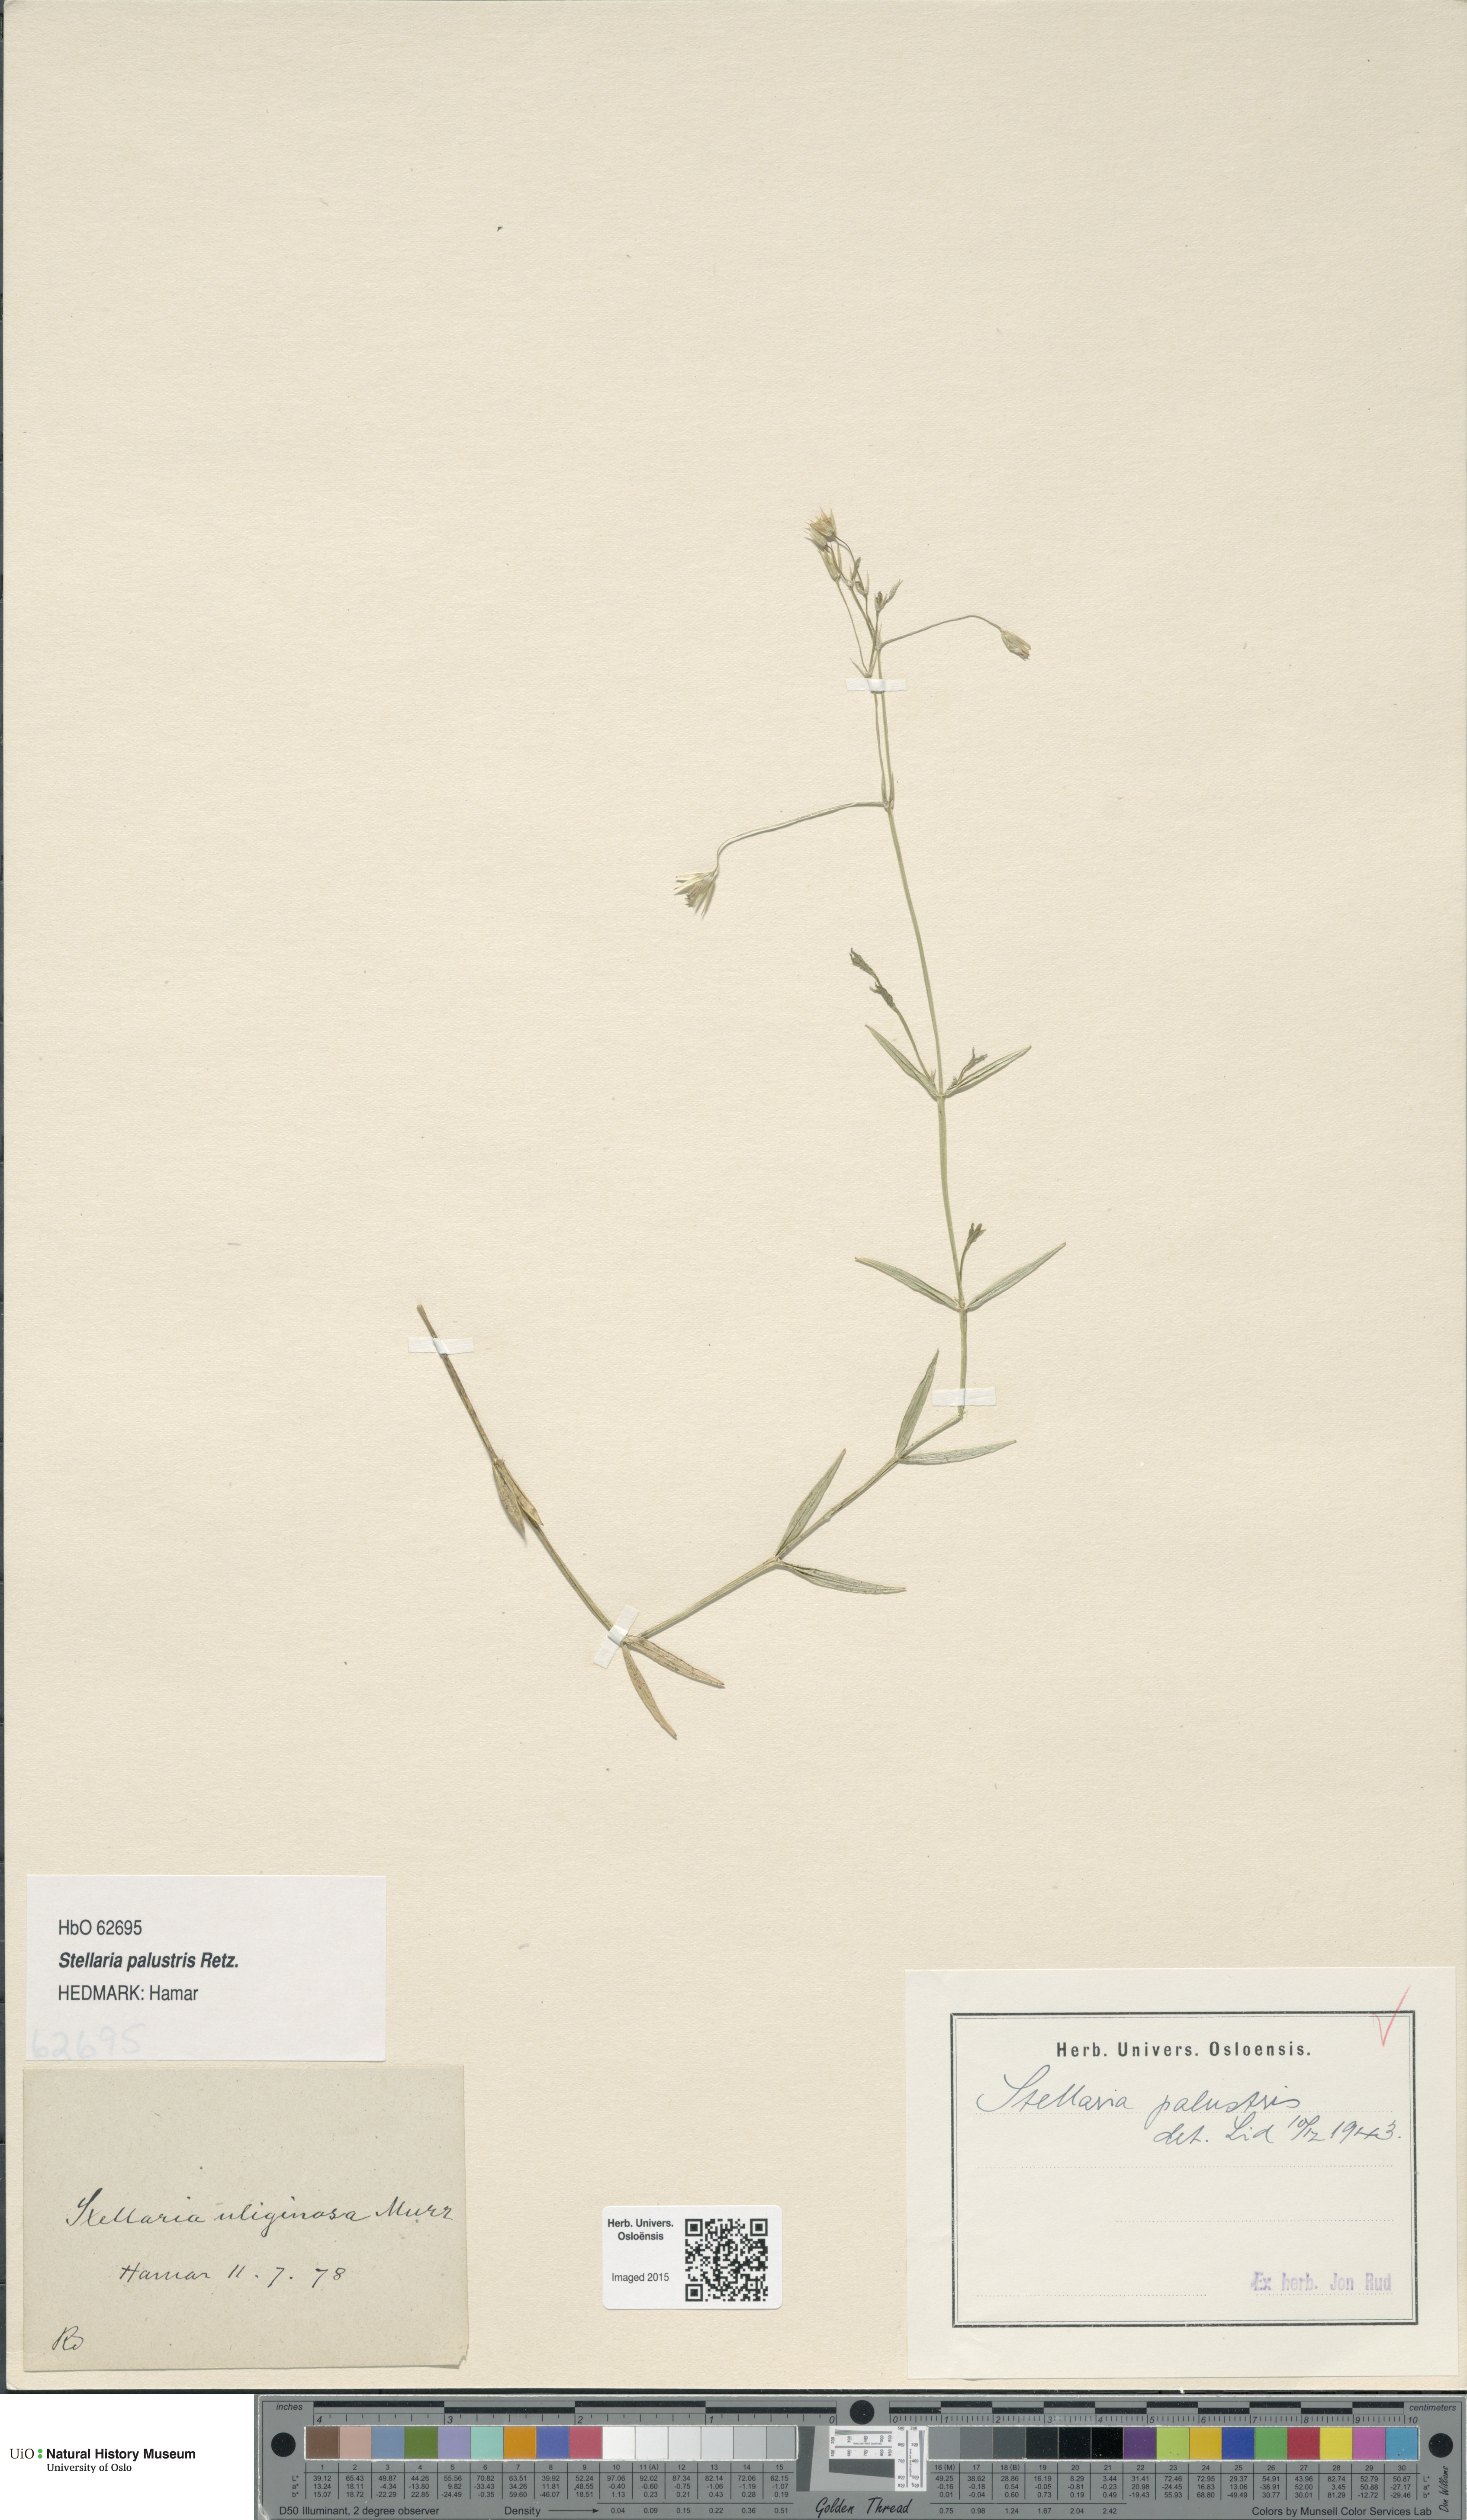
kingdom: Plantae
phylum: Tracheophyta
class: Magnoliopsida
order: Caryophyllales
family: Caryophyllaceae
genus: Stellaria
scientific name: Stellaria palustris
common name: Marsh stitchwort
